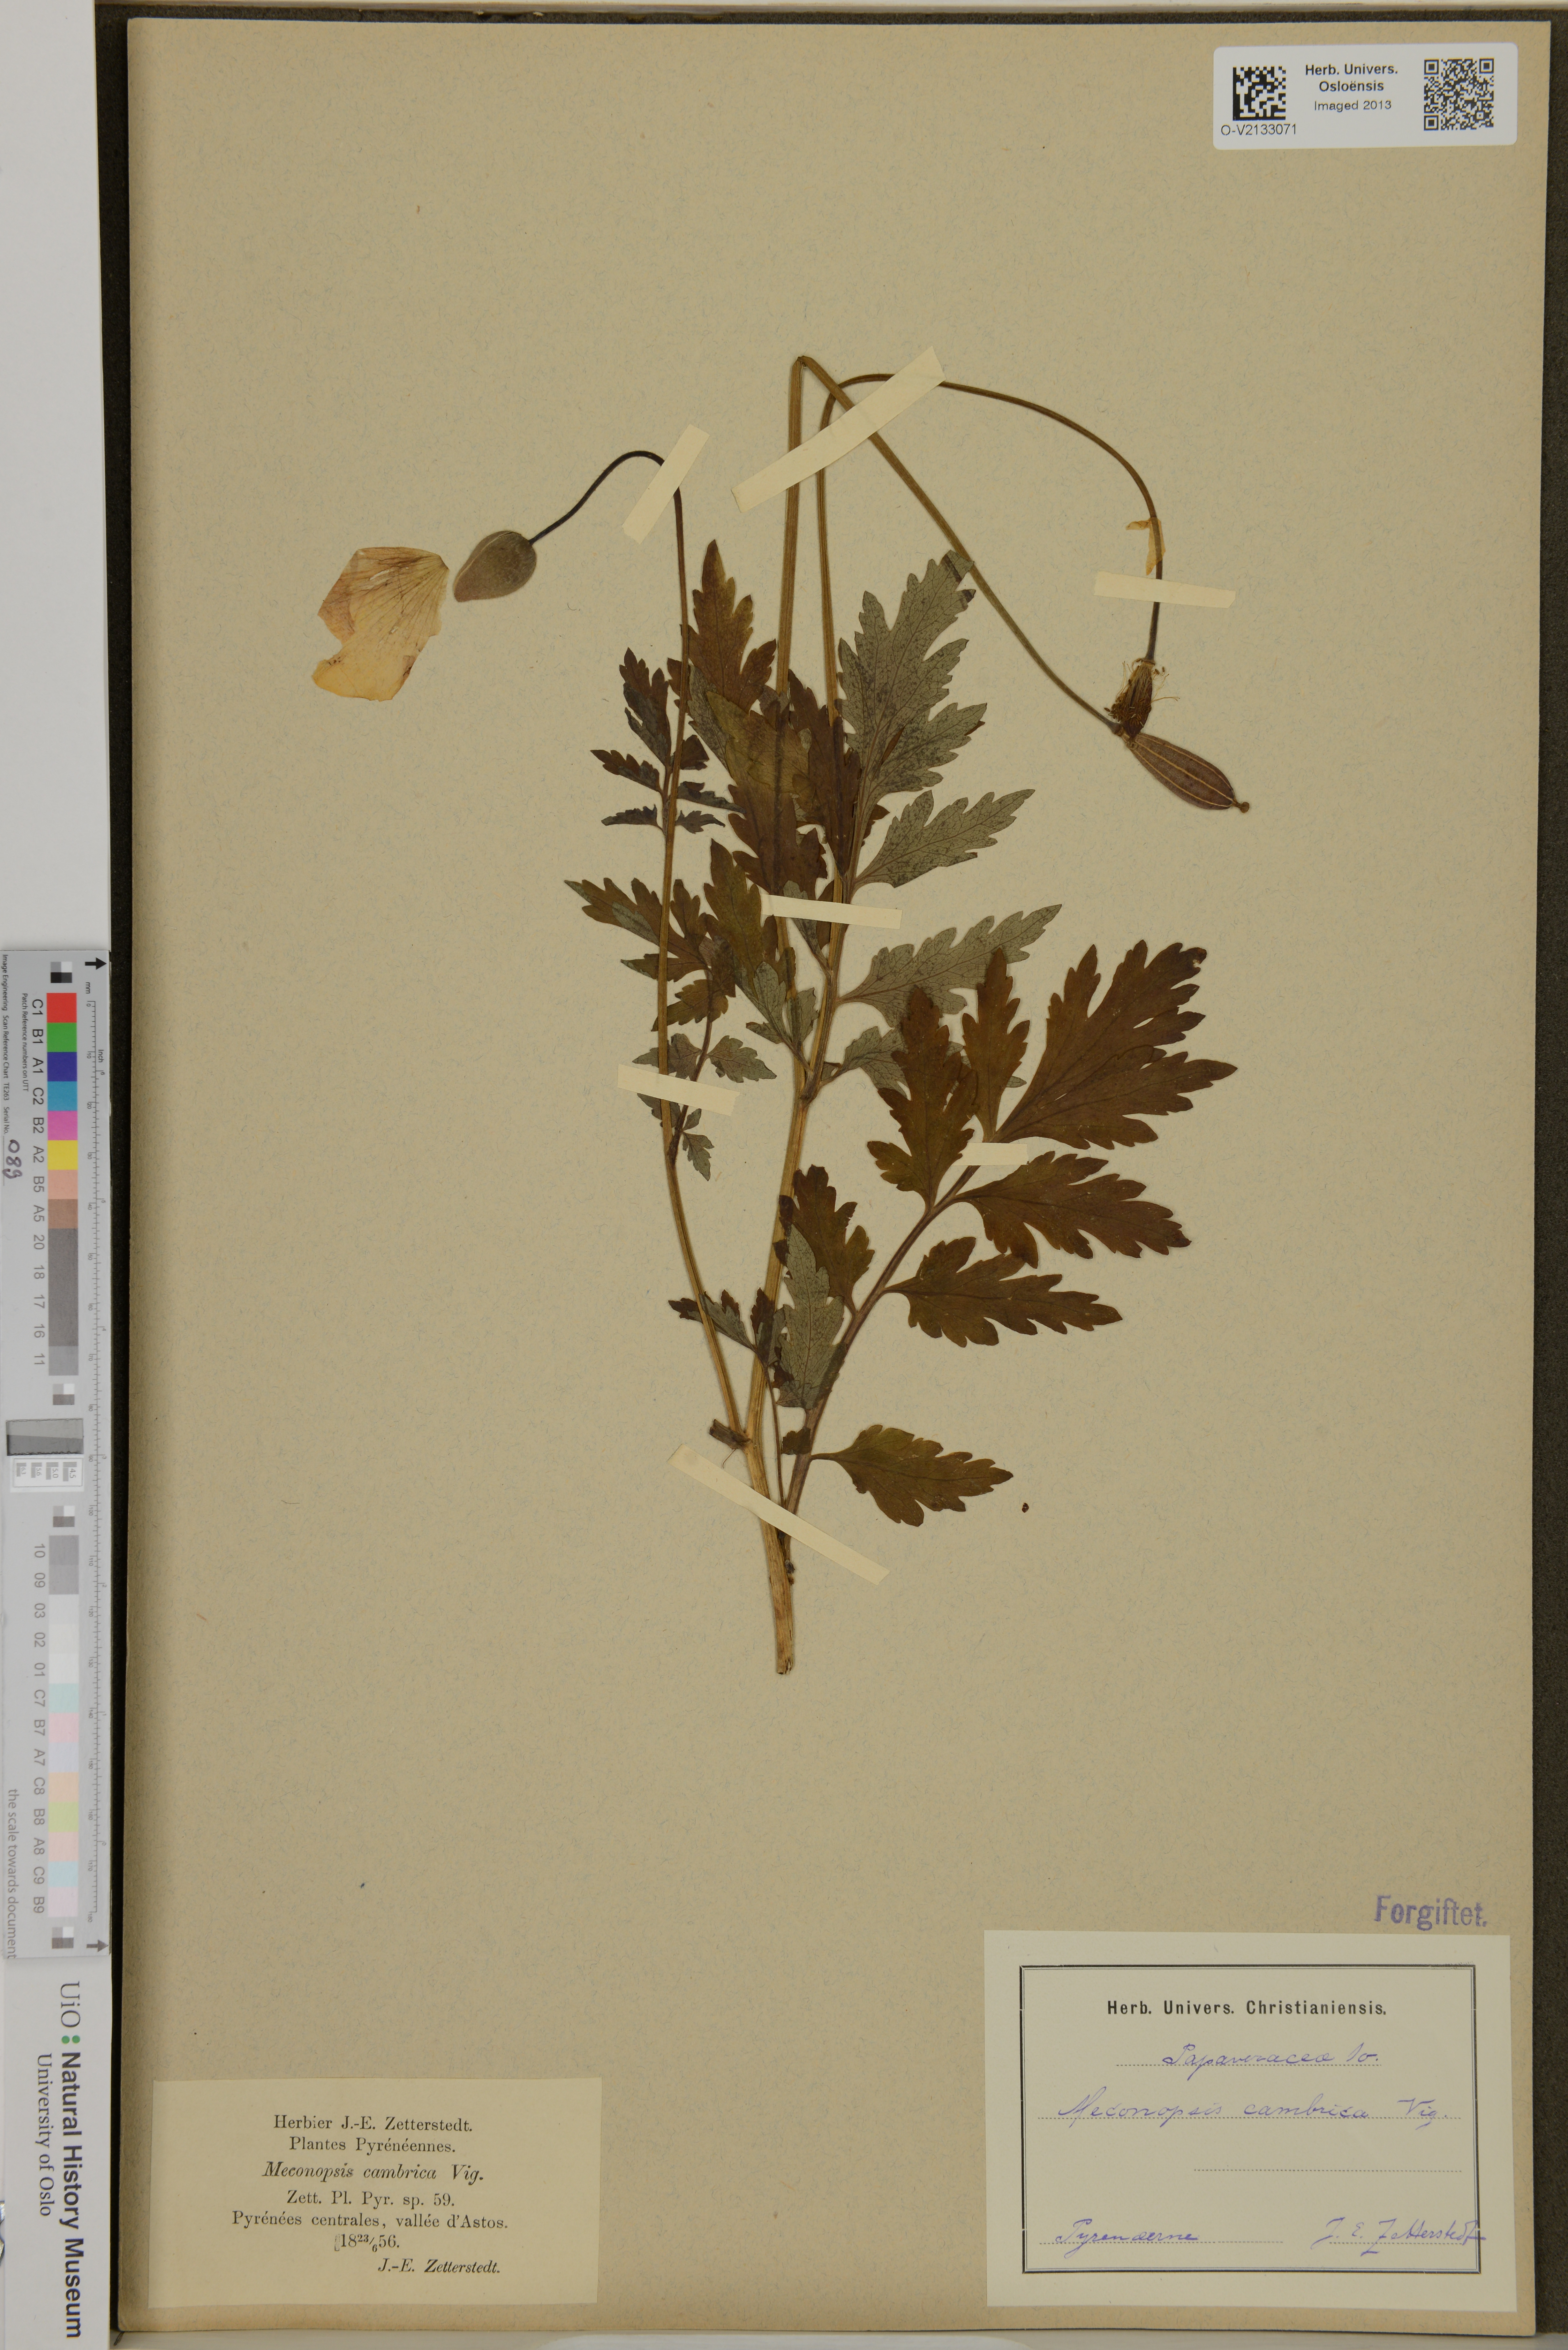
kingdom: Plantae
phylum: Tracheophyta
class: Magnoliopsida
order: Ranunculales
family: Papaveraceae
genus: Papaver
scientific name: Papaver cambricum
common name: Poppy
